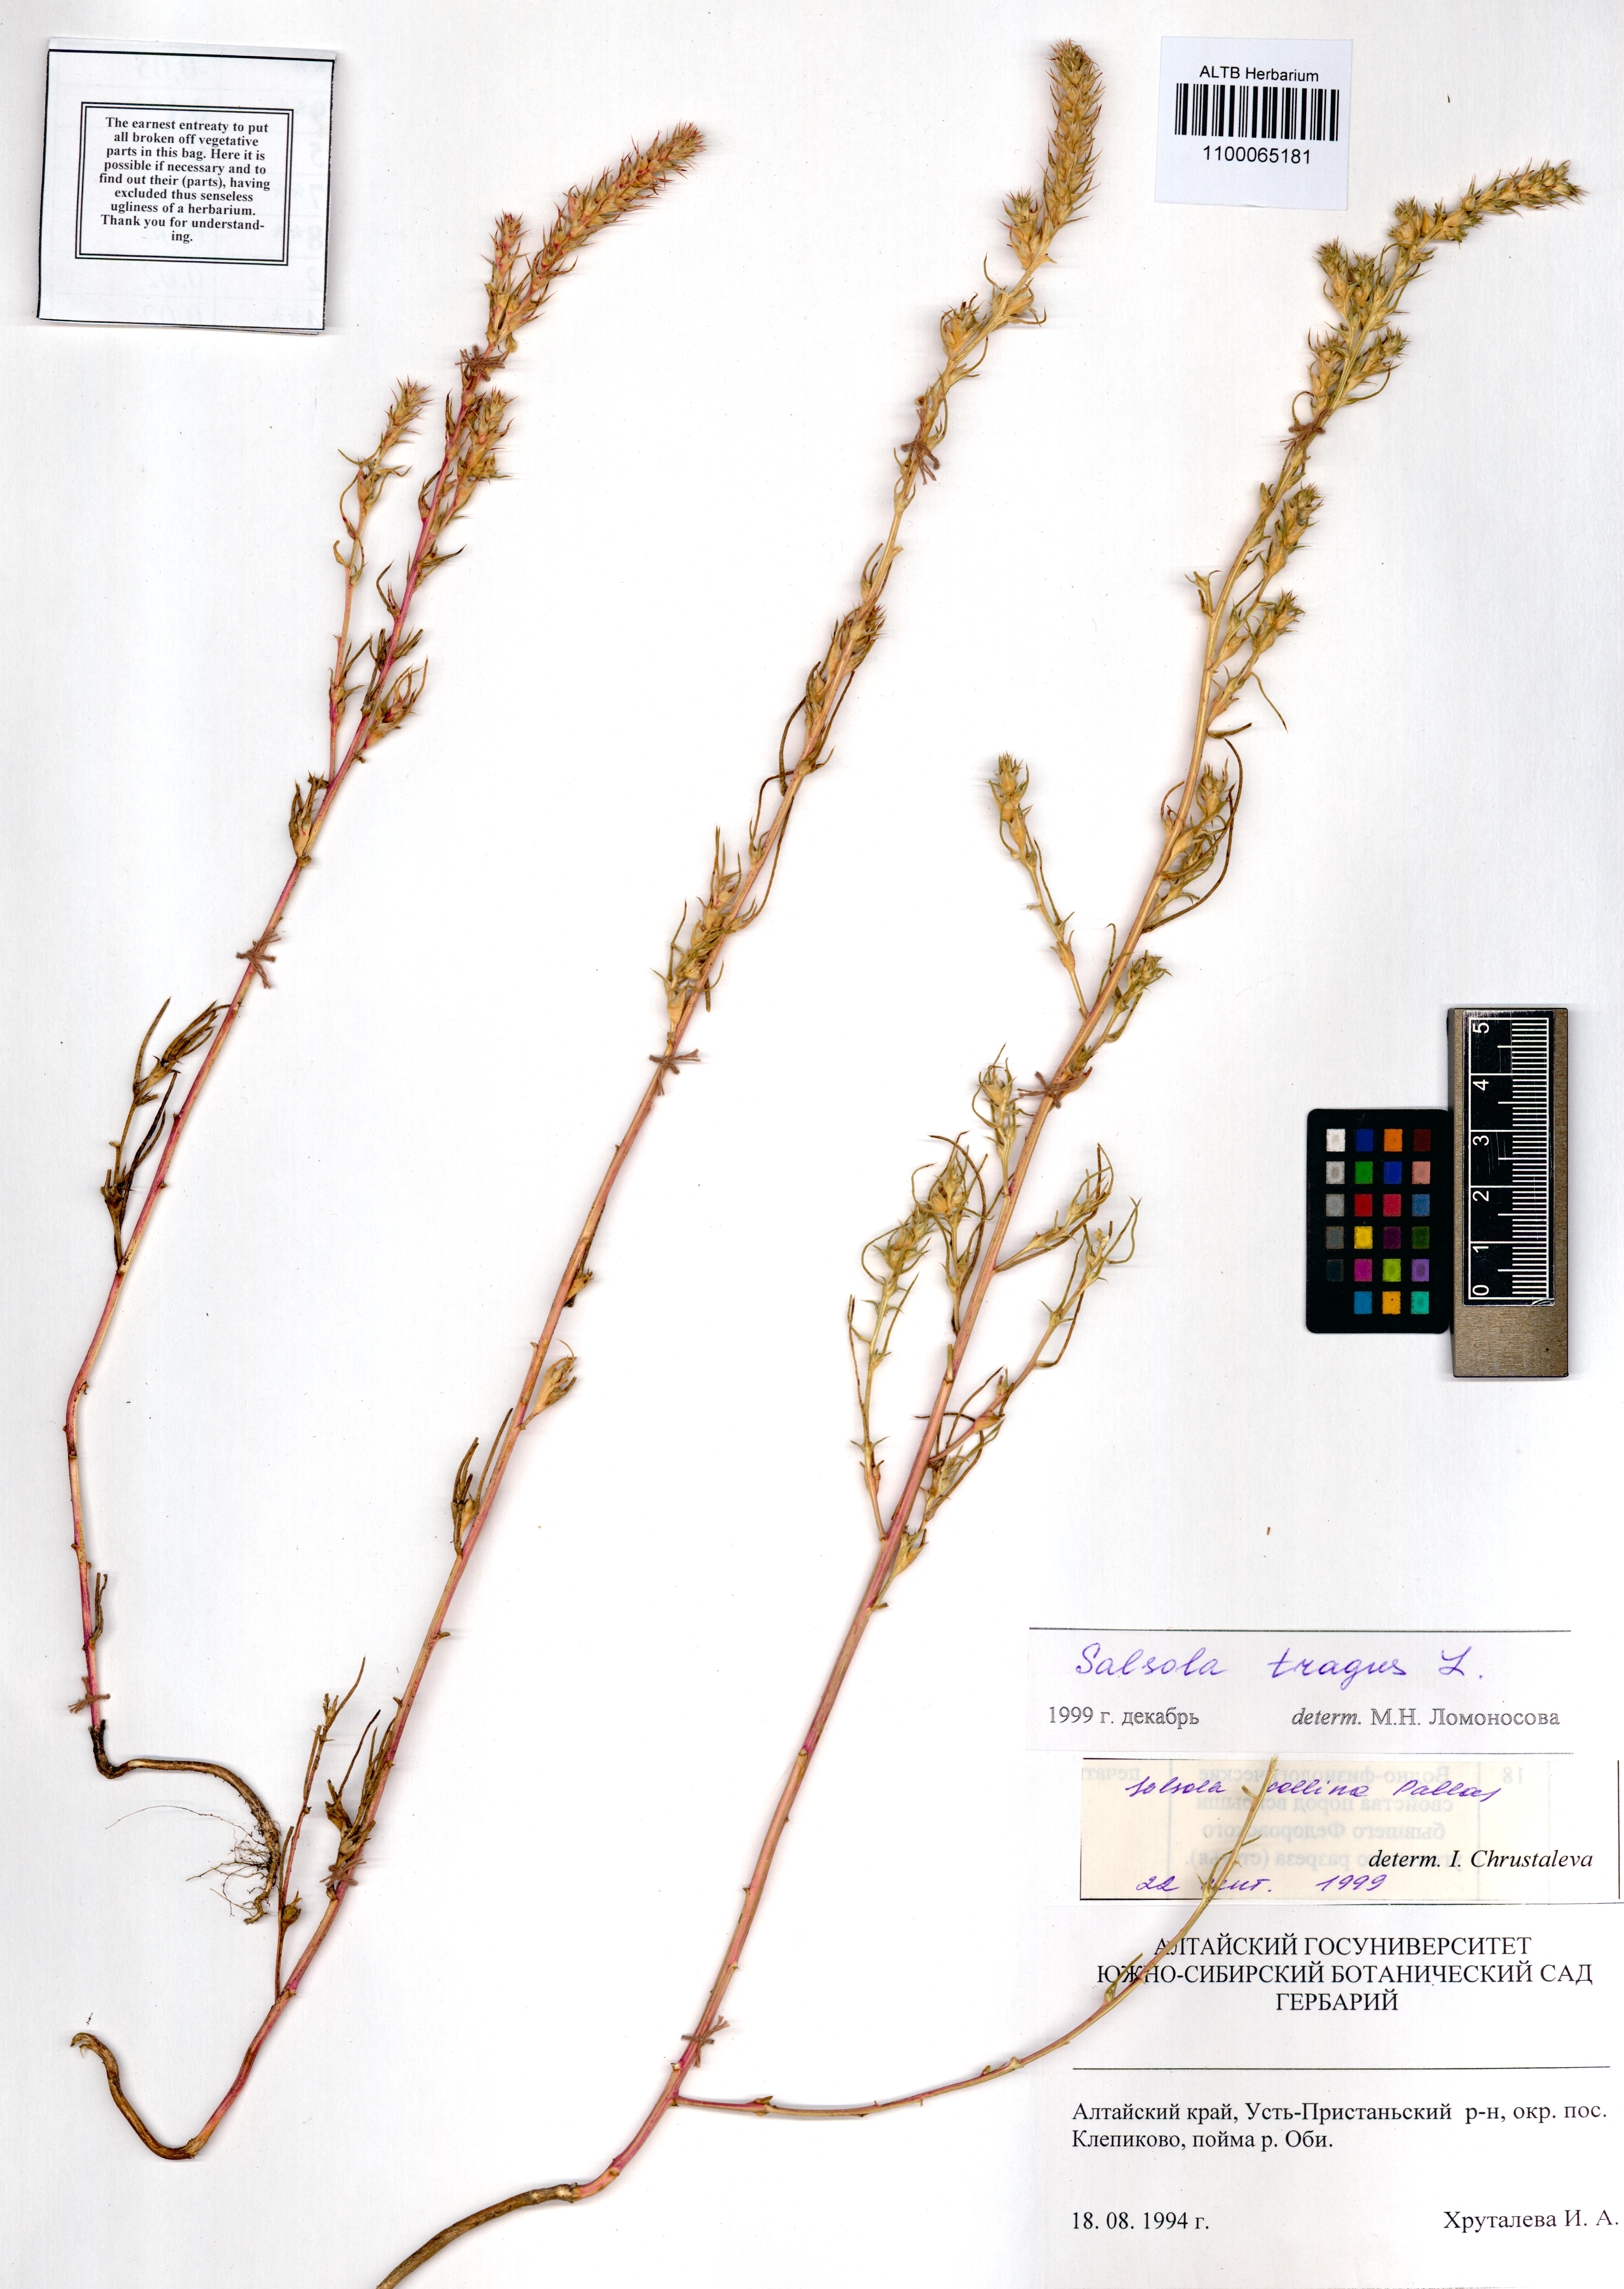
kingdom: Plantae
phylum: Tracheophyta
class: Magnoliopsida
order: Caryophyllales
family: Amaranthaceae
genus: Salsola
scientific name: Salsola tragus
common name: Prickly russian thistle
